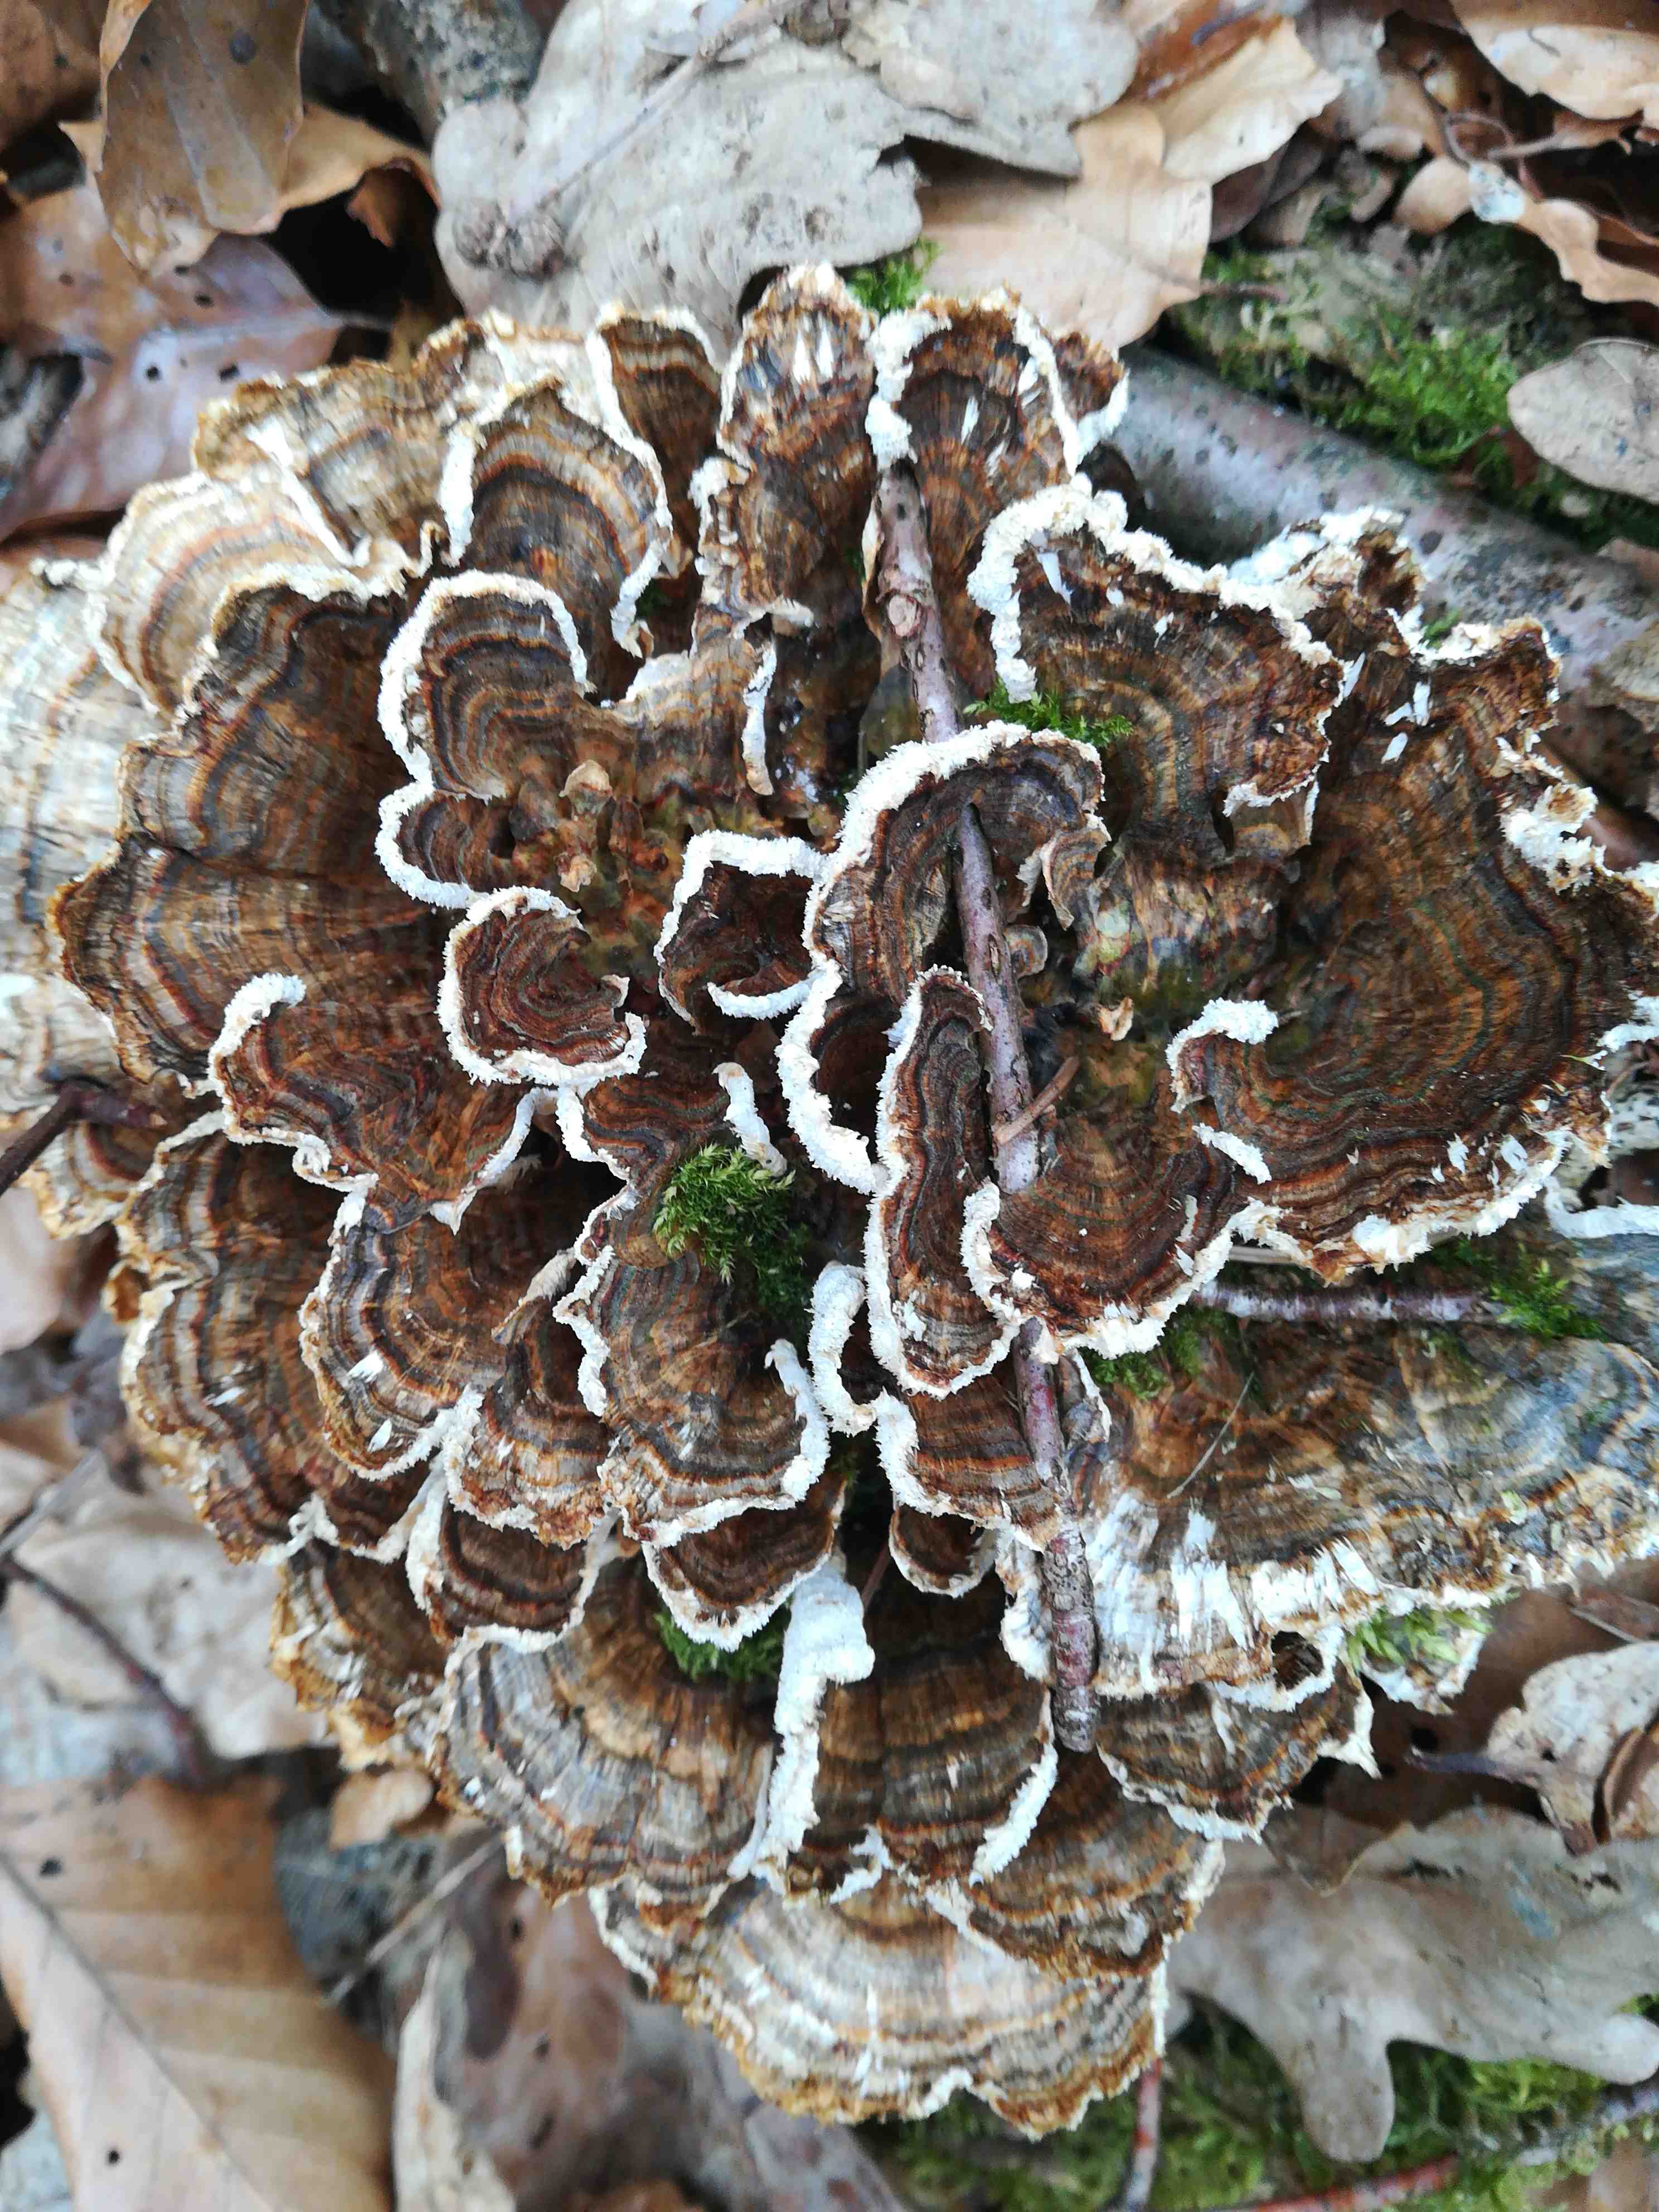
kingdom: Fungi
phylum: Basidiomycota
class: Agaricomycetes
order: Polyporales
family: Polyporaceae
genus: Trametes
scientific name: Trametes versicolor
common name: broget læderporesvamp
